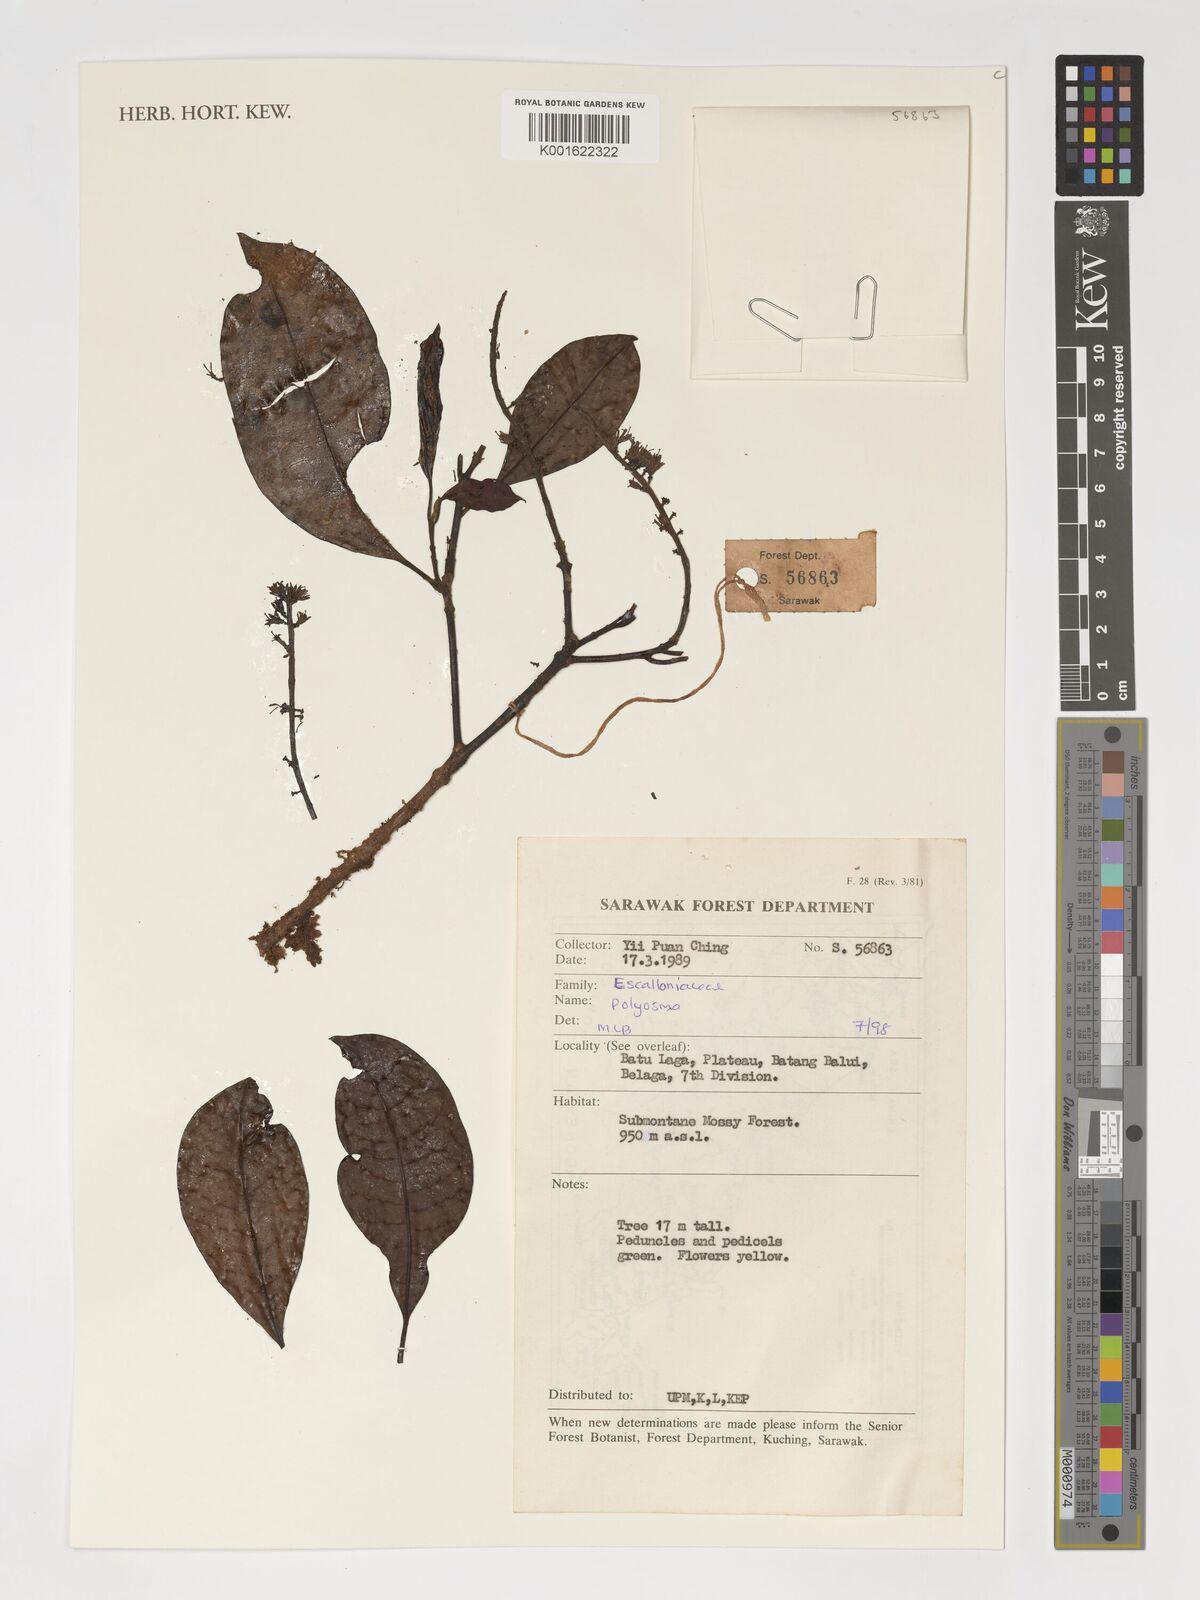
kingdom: Plantae
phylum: Tracheophyta
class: Magnoliopsida
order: Escalloniales
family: Escalloniaceae
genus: Polyosma
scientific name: Polyosma
